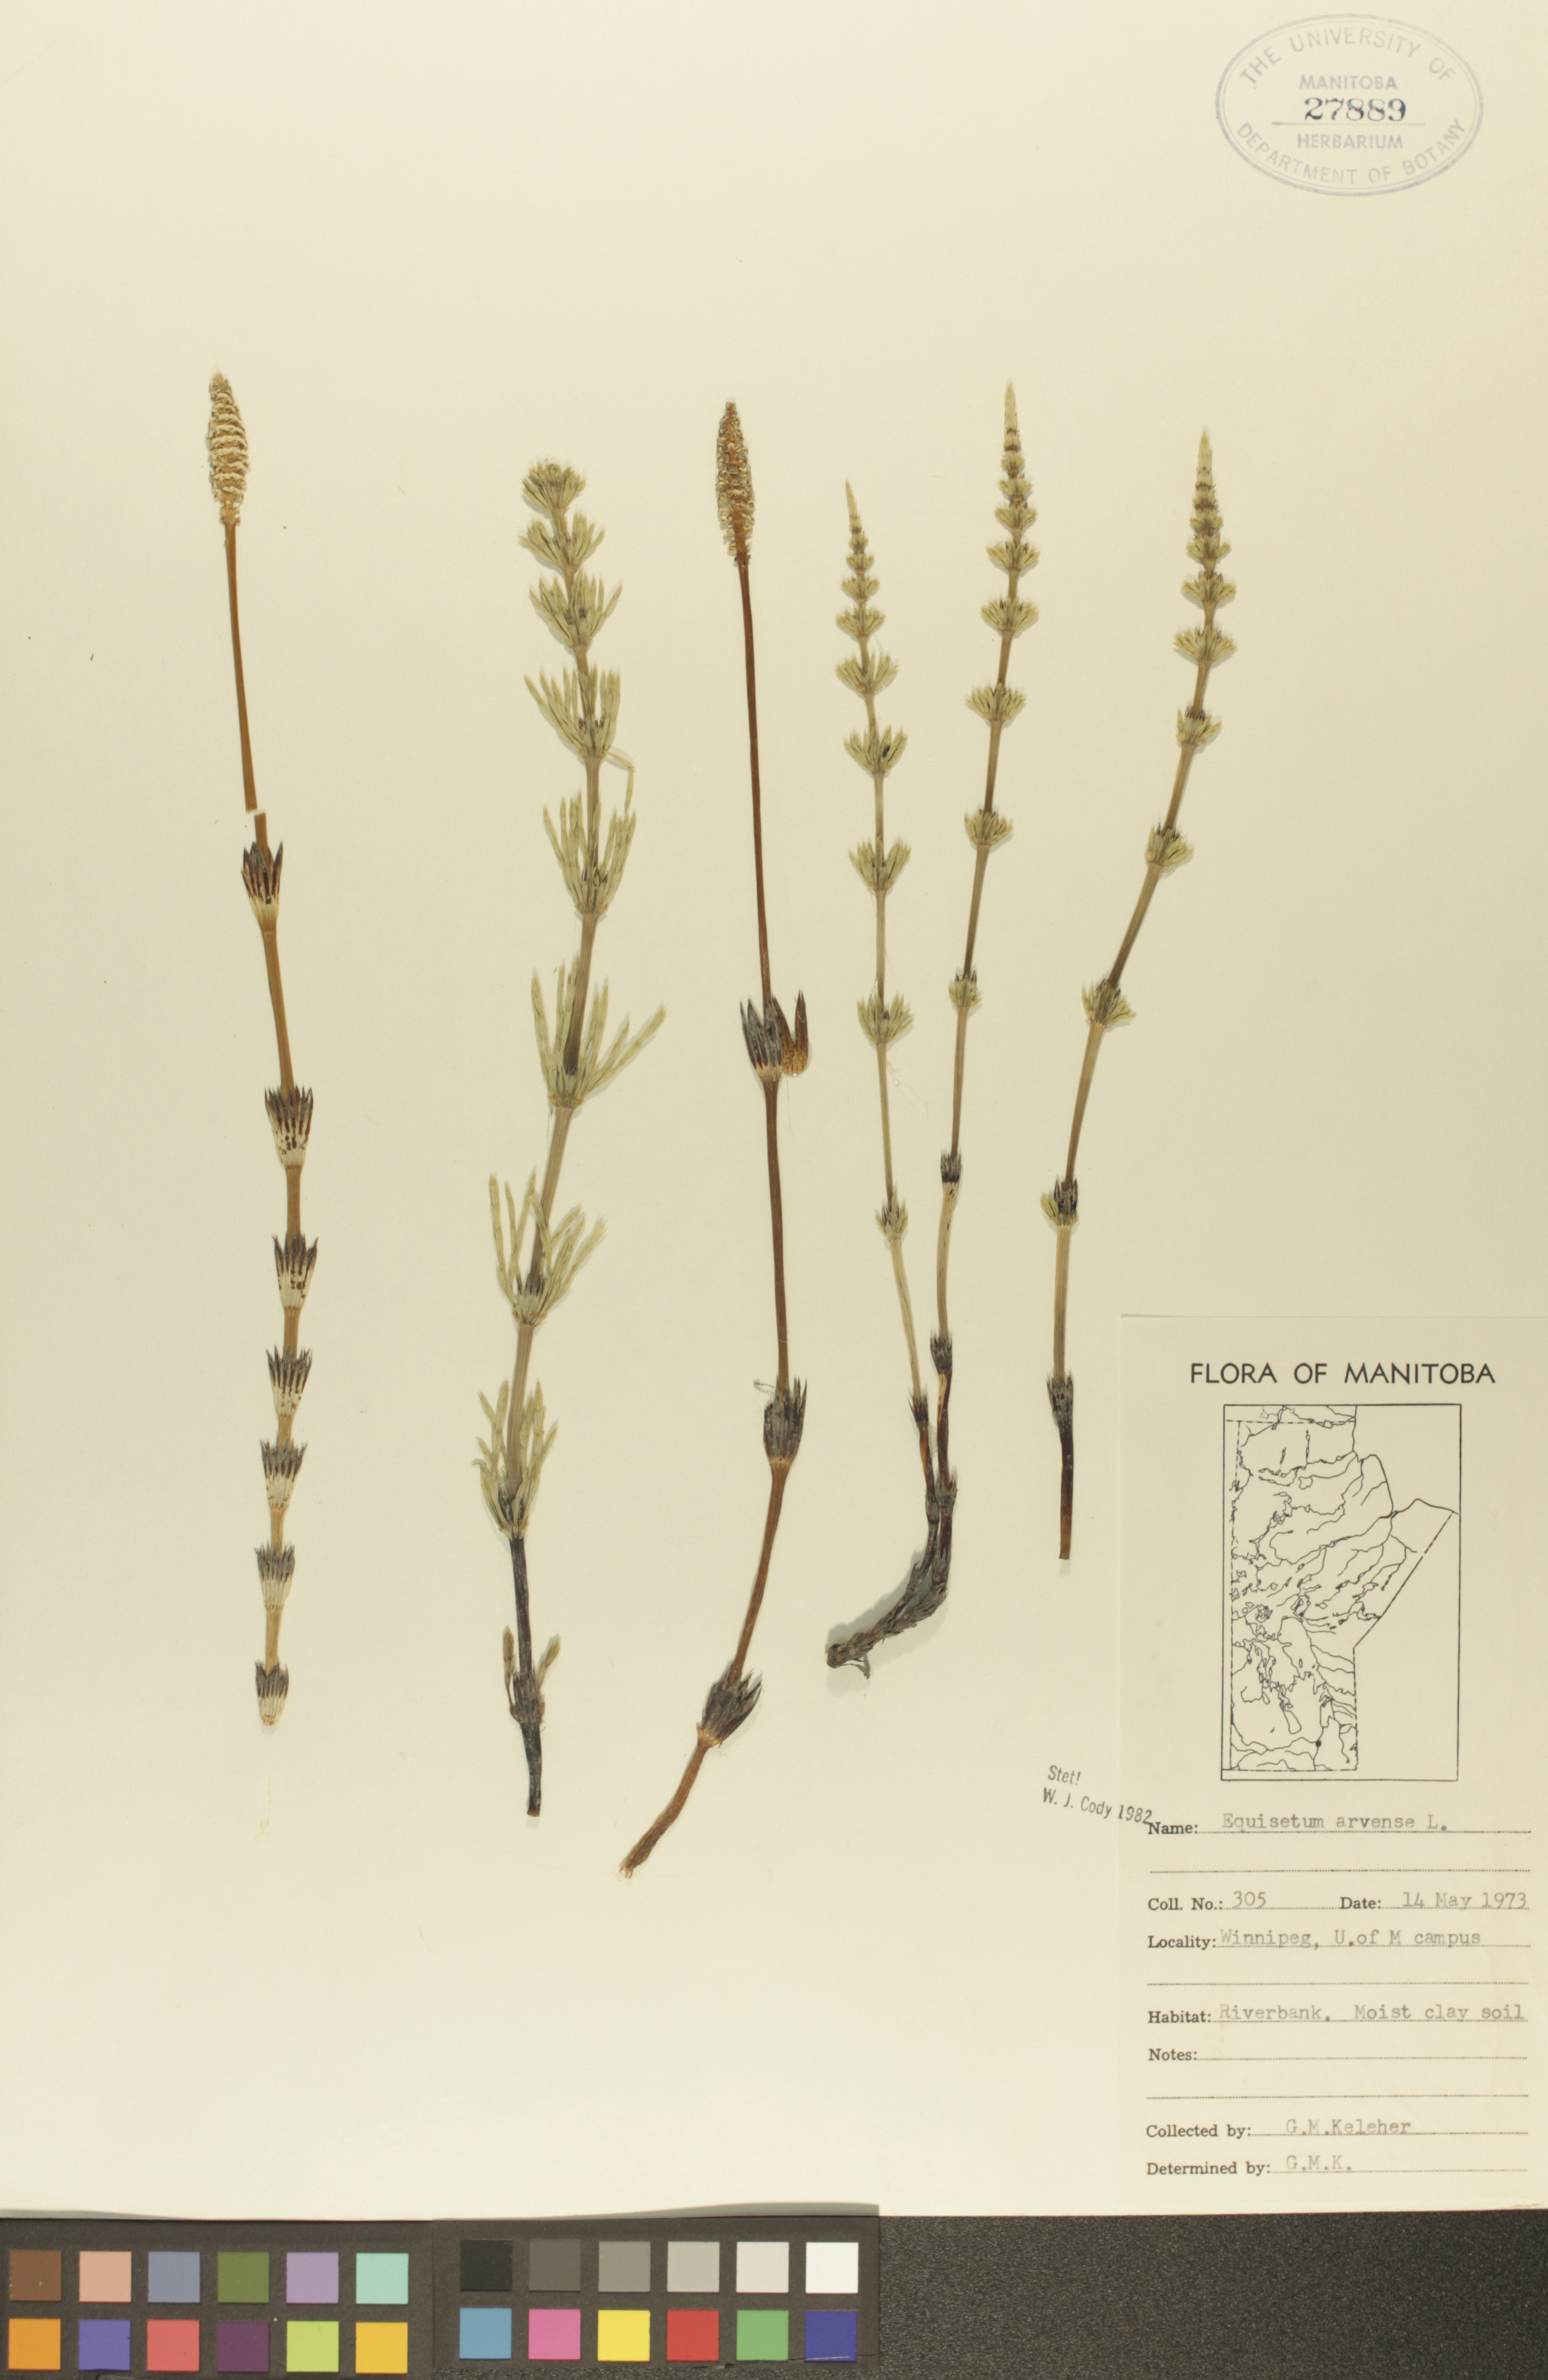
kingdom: Plantae
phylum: Tracheophyta
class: Polypodiopsida
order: Equisetales
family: Equisetaceae
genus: Equisetum
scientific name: Equisetum arvense
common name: Field horsetail
